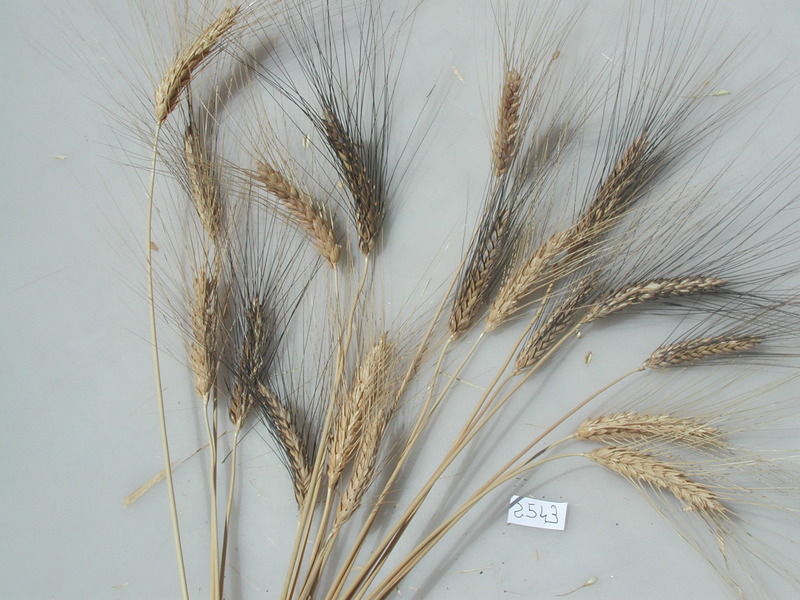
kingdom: Plantae
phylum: Tracheophyta
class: Liliopsida
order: Poales
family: Poaceae
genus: Triticum
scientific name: Triticum turgidum
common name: Wheat
